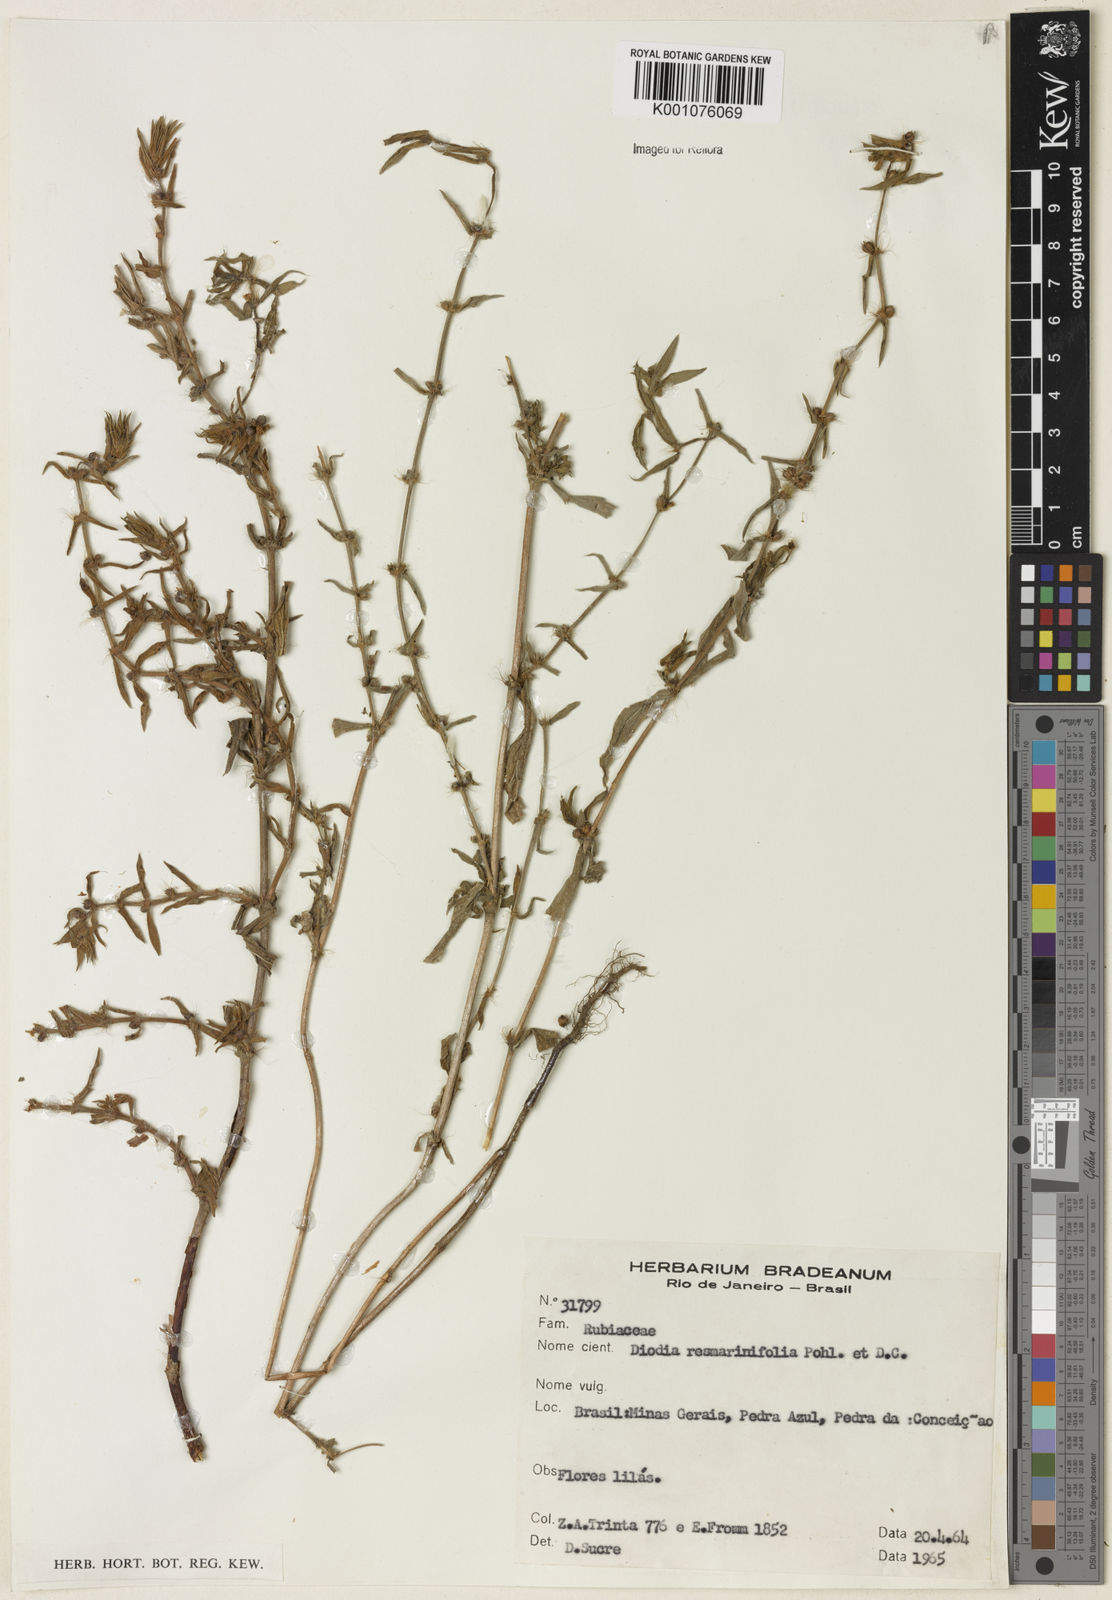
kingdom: Plantae
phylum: Tracheophyta
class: Magnoliopsida
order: Gentianales
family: Rubiaceae
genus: Hexasepalum
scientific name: Hexasepalum
